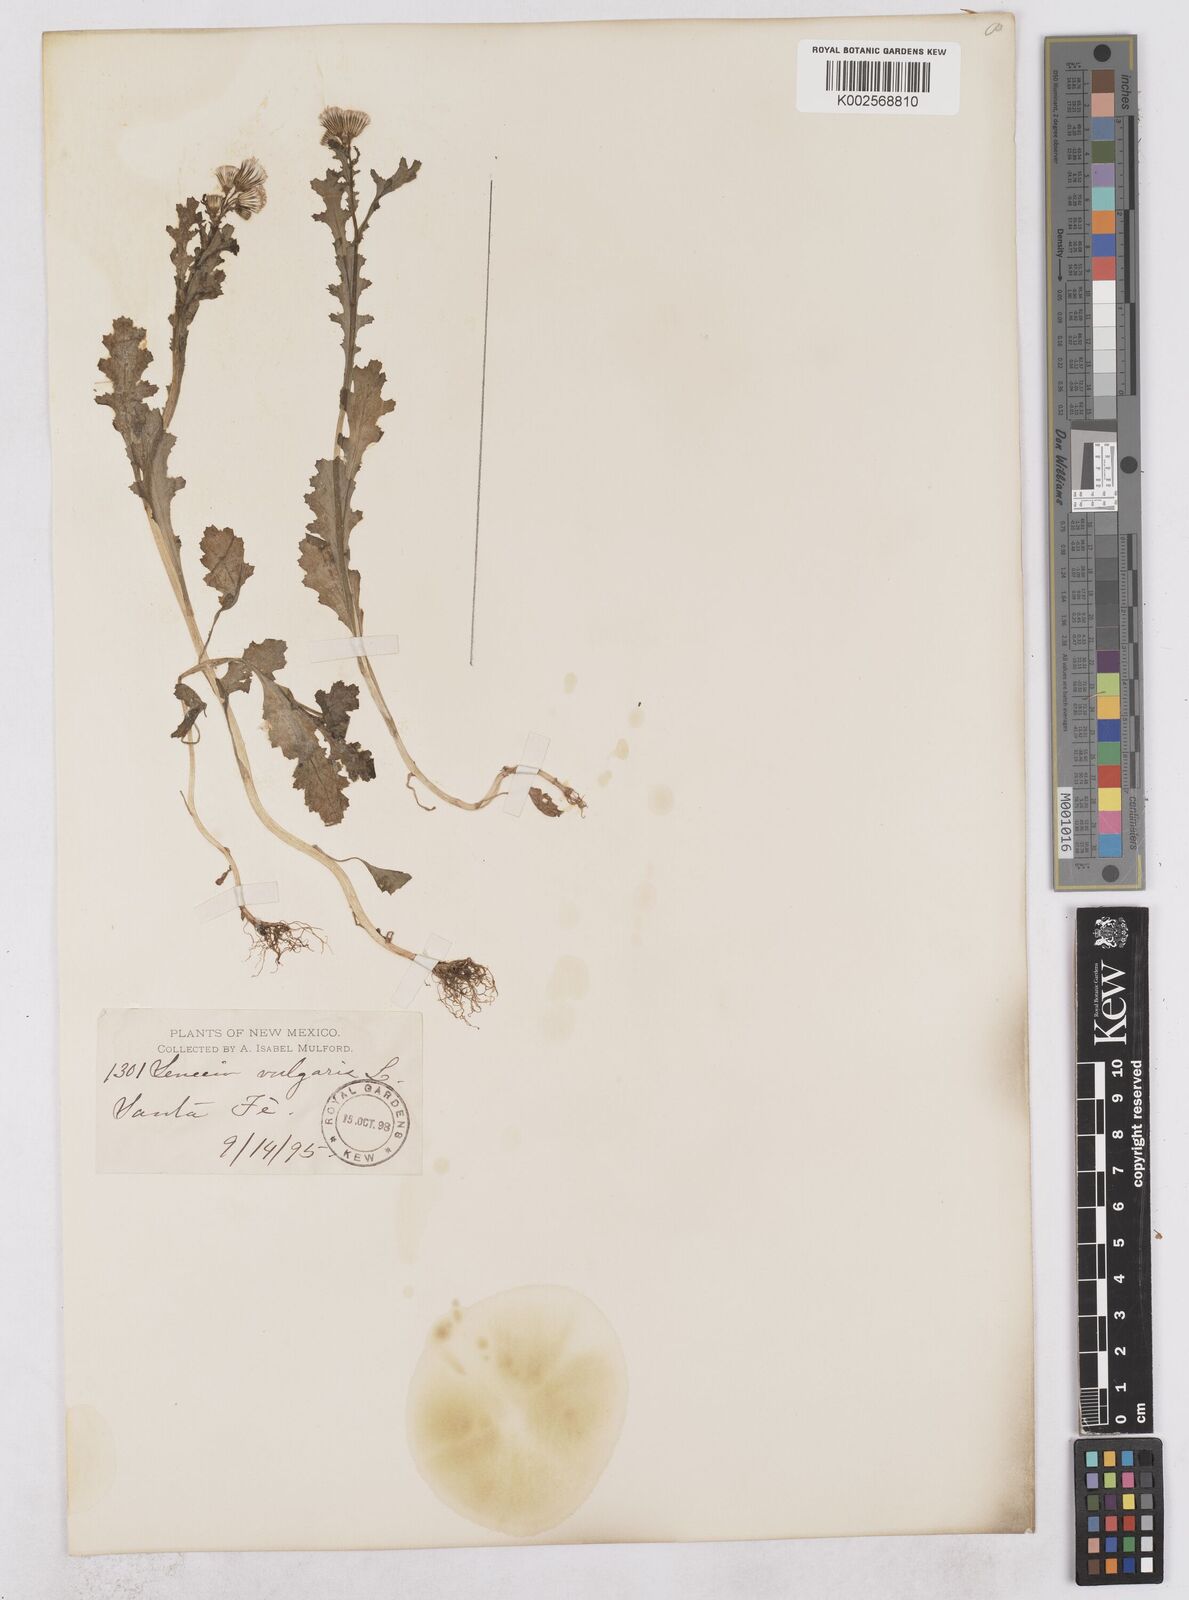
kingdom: Plantae
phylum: Tracheophyta
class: Magnoliopsida
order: Asterales
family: Asteraceae
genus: Senecio
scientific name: Senecio vulgaris
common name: Old-man-in-the-spring
